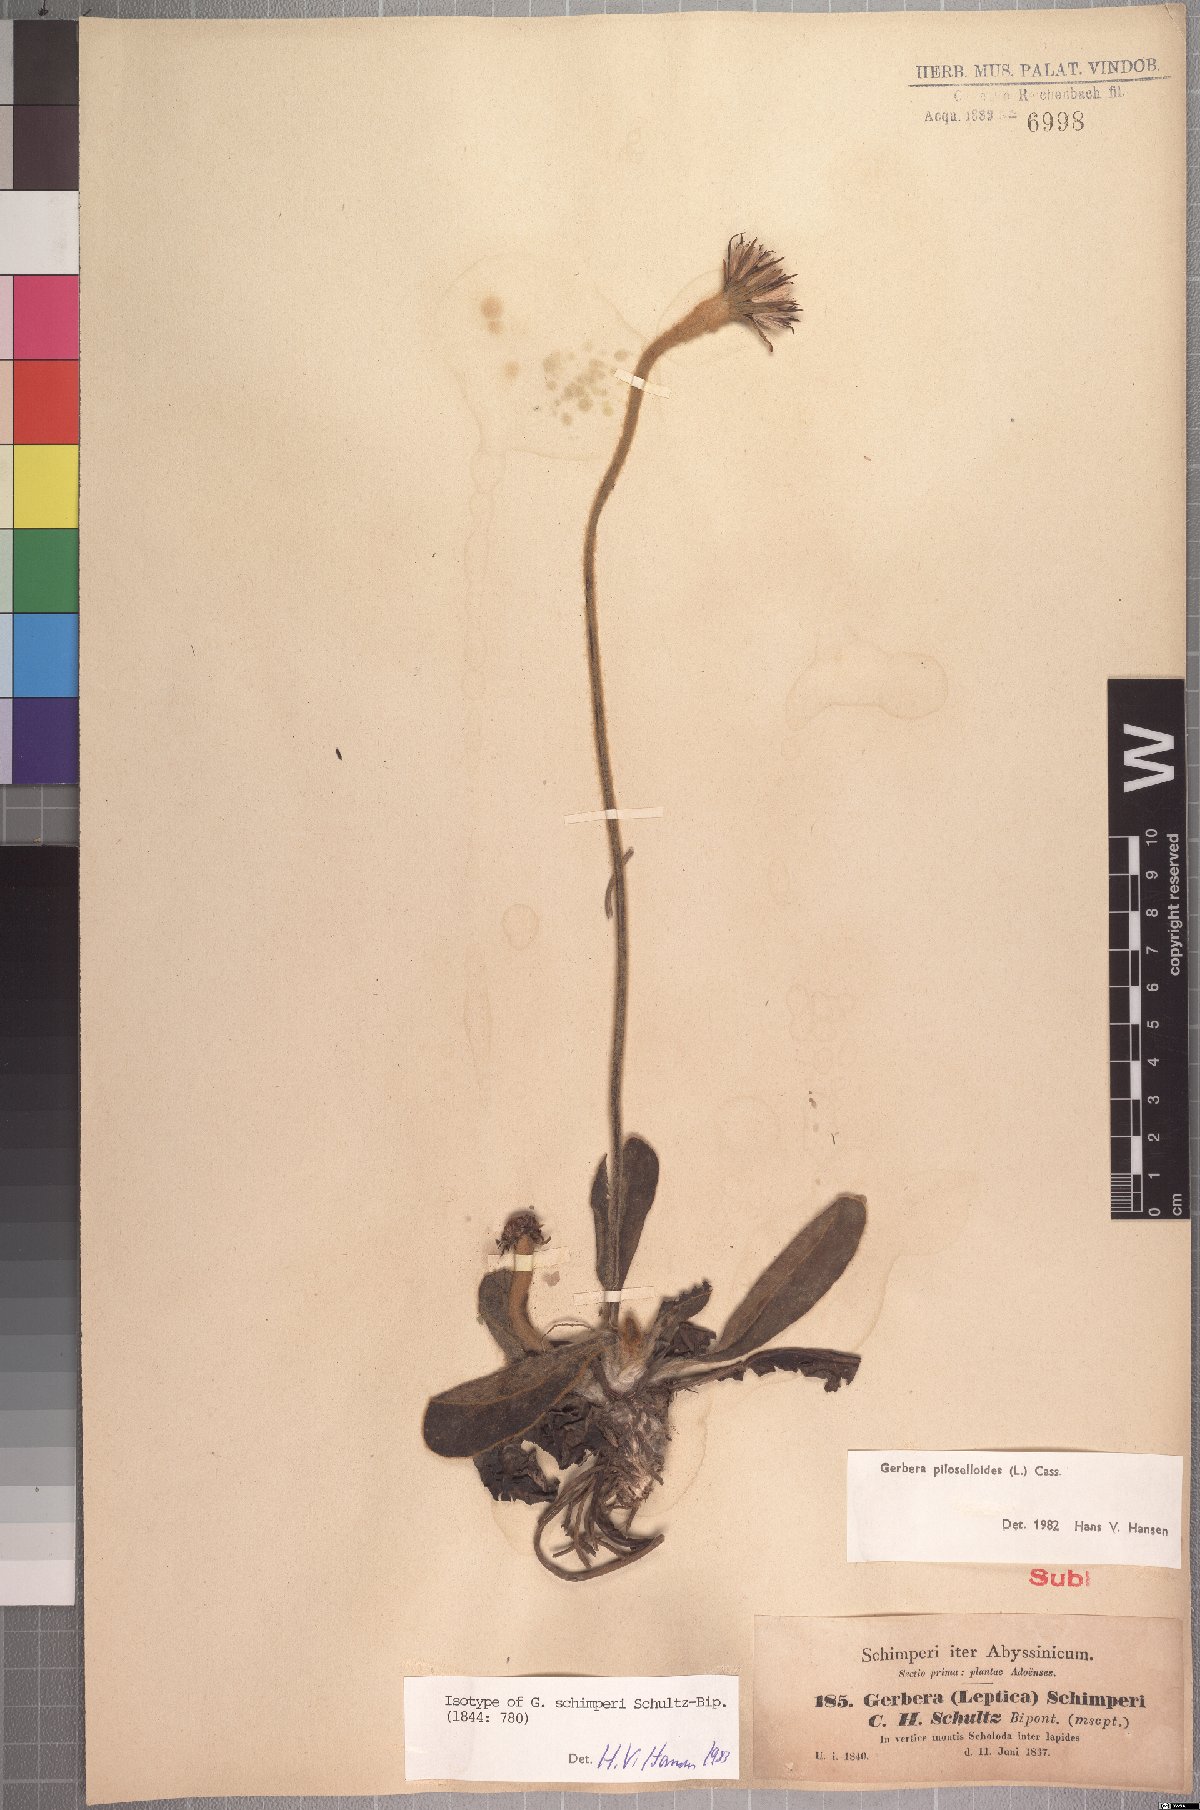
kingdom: Plantae
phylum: Tracheophyta
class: Magnoliopsida
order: Asterales
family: Asteraceae
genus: Piloselloides
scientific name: Piloselloides hirsuta
